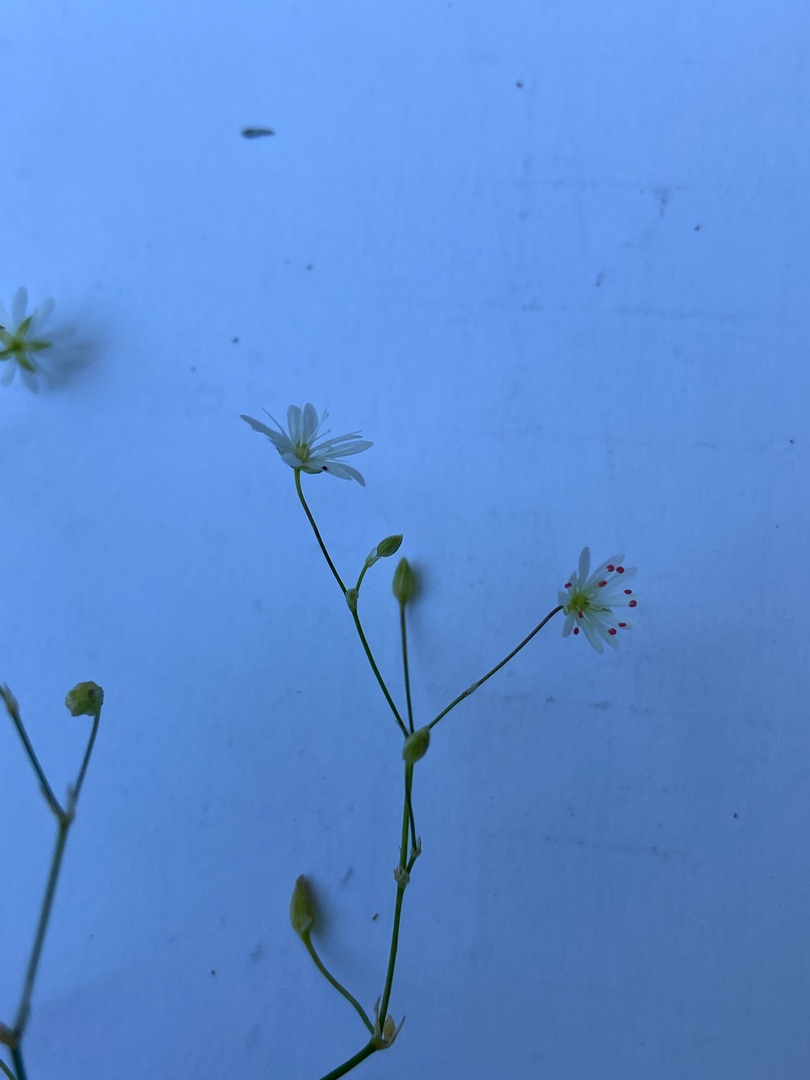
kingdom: Plantae
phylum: Tracheophyta
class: Magnoliopsida
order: Caryophyllales
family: Caryophyllaceae
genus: Stellaria
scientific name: Stellaria graminea
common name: Græsbladet fladstjerne
